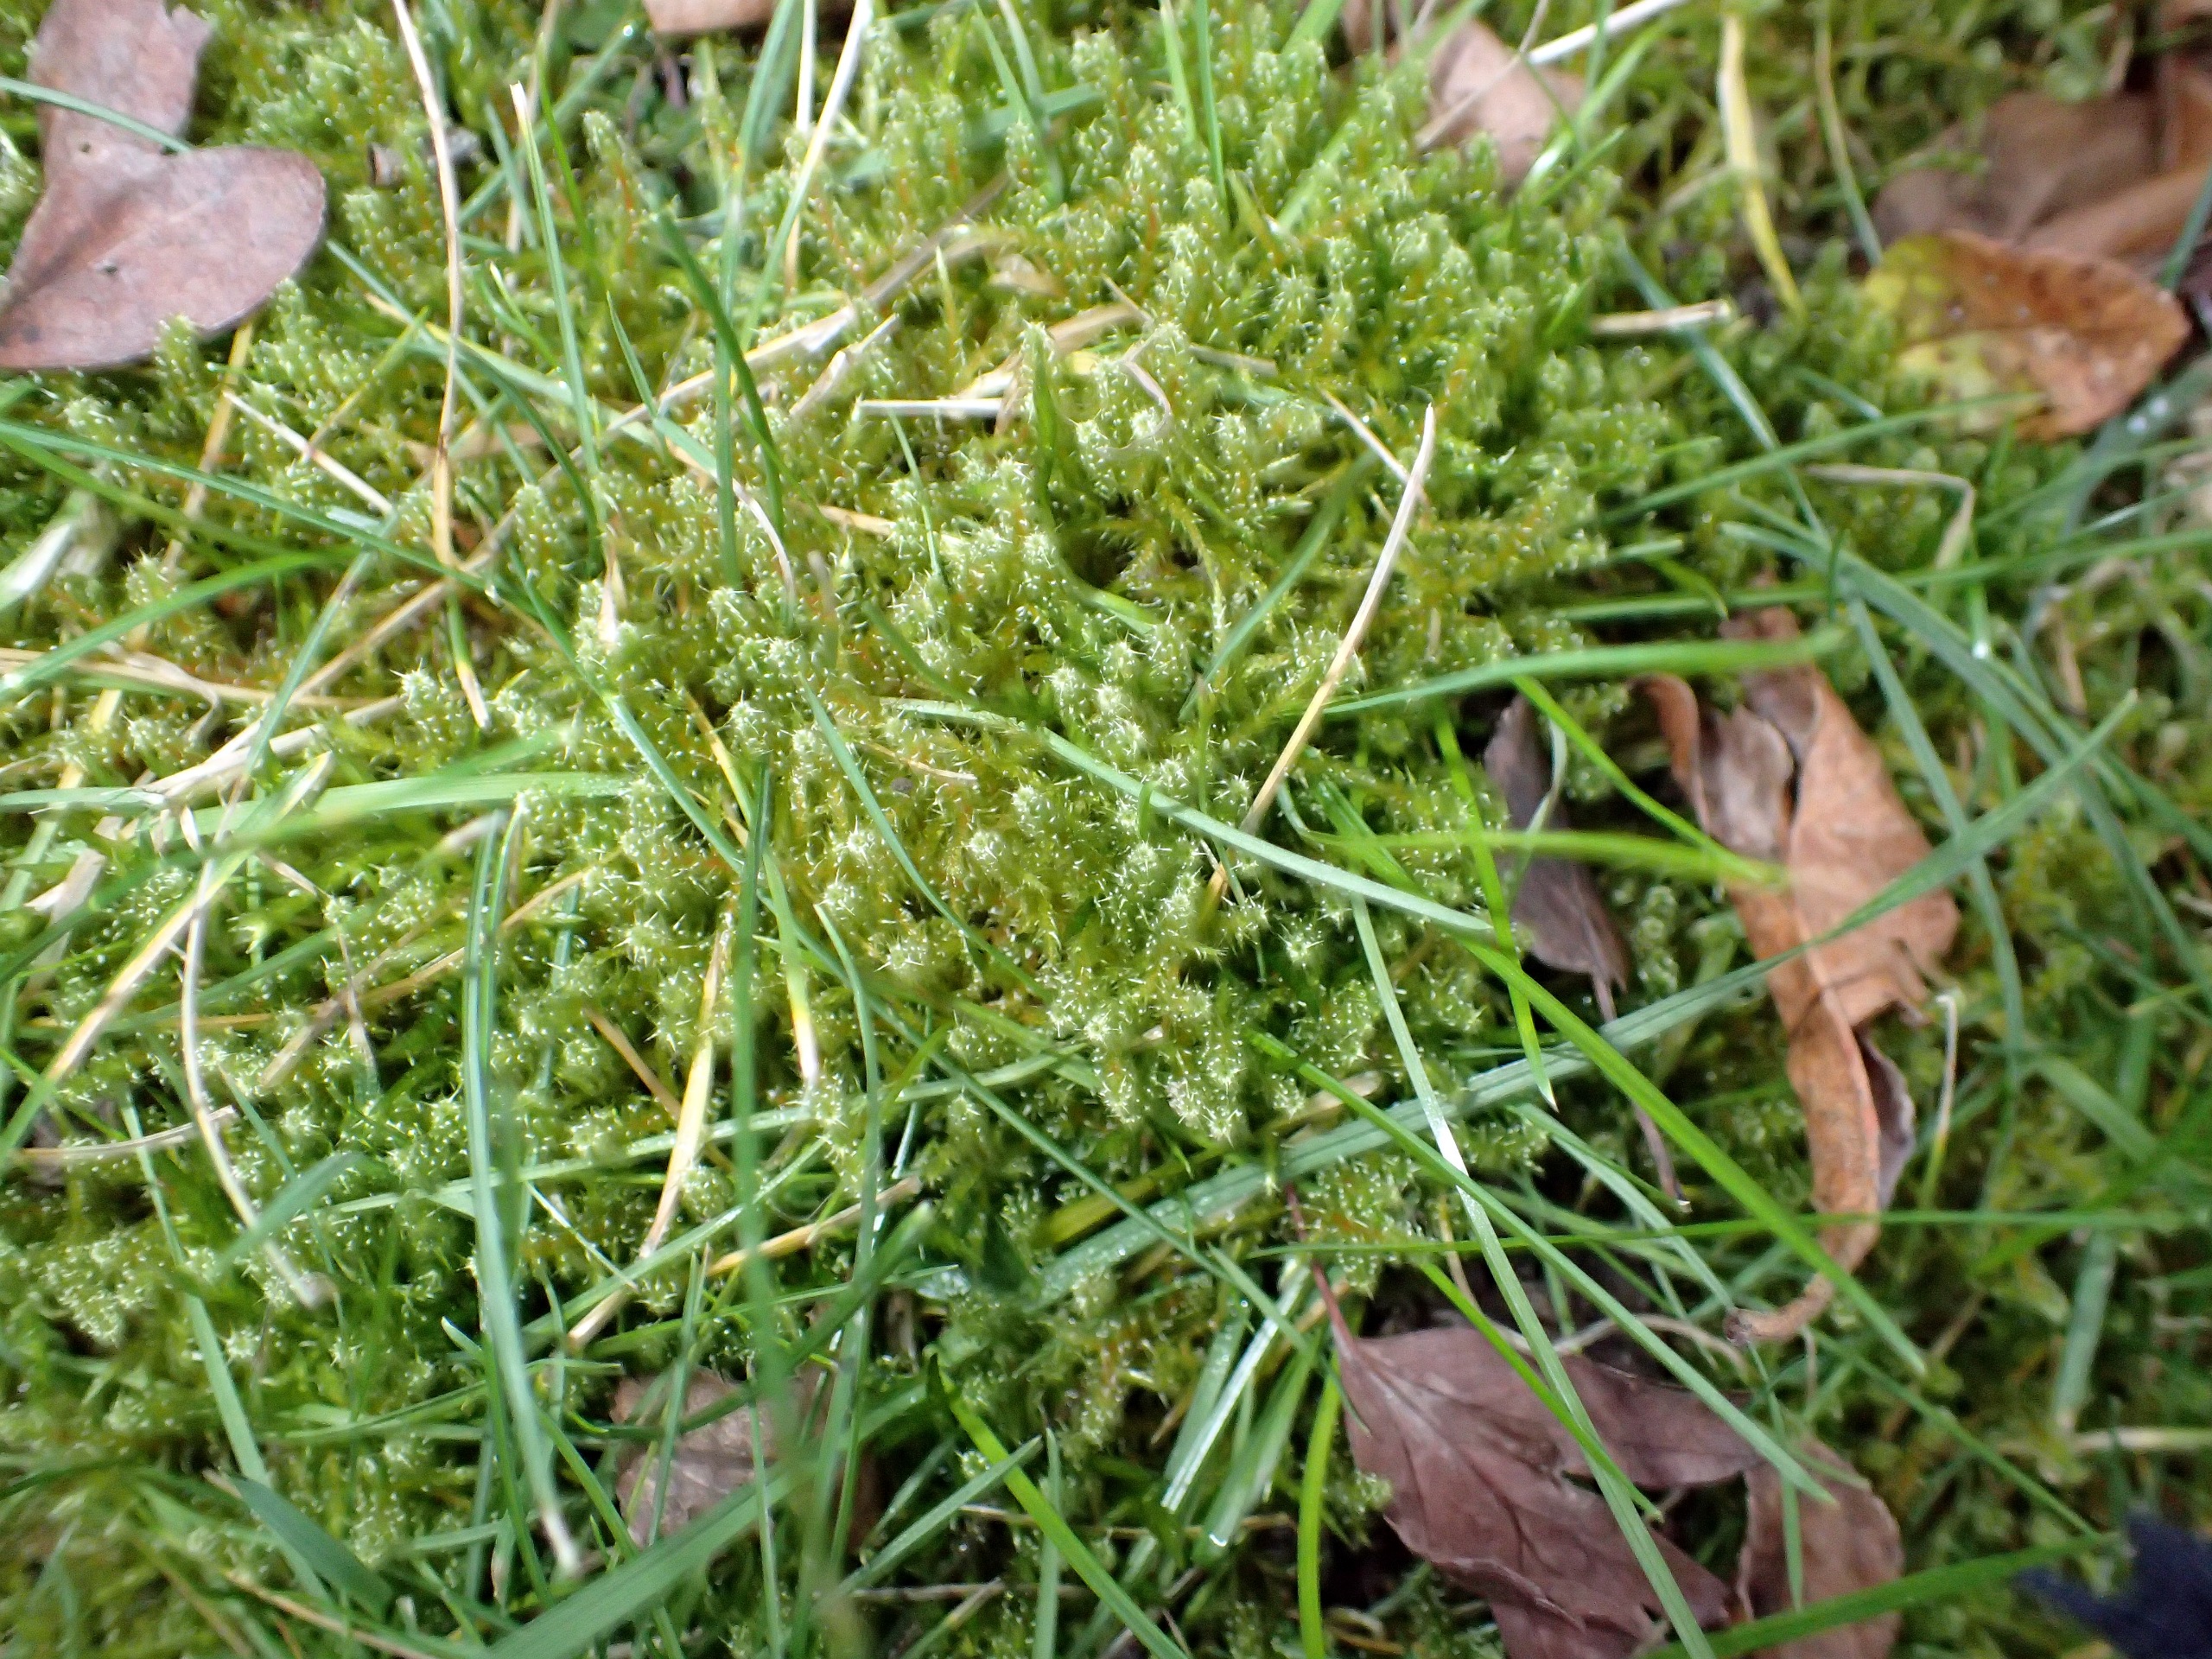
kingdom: Plantae
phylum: Bryophyta
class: Bryopsida
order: Hypnales
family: Hylocomiaceae
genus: Rhytidiadelphus
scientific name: Rhytidiadelphus squarrosus
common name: Plæne-kransemos
